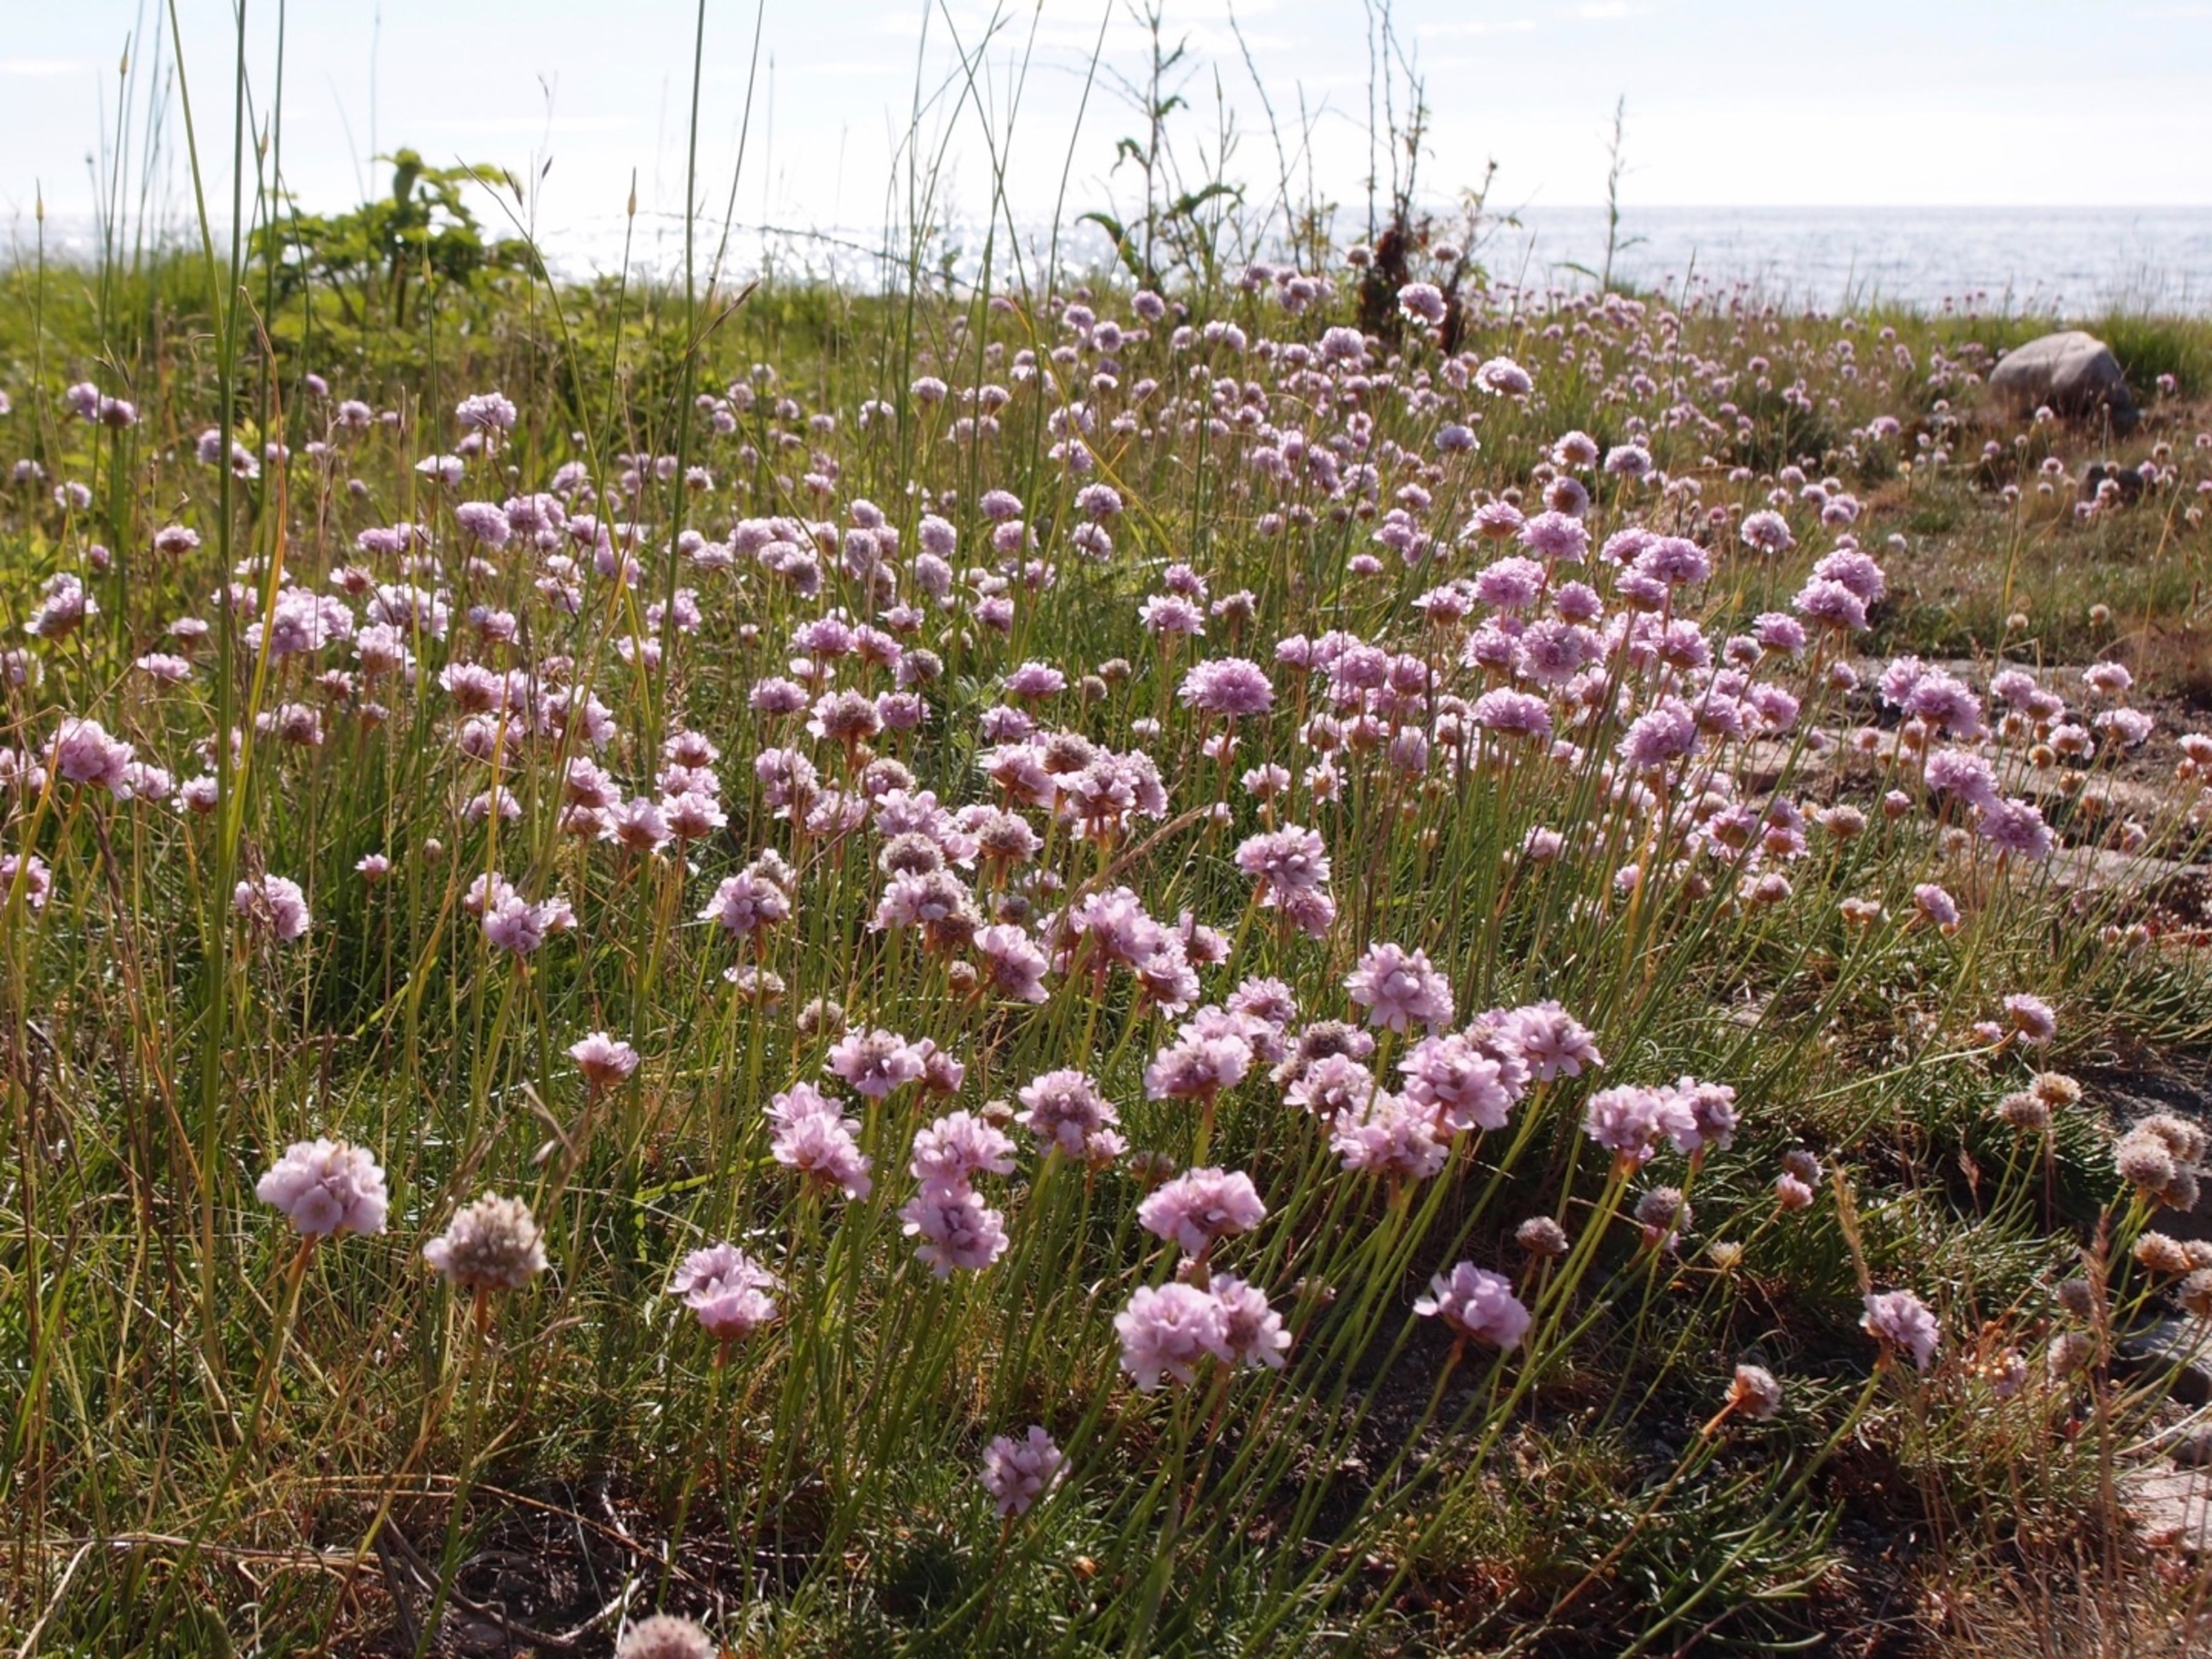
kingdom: Plantae
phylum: Tracheophyta
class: Magnoliopsida
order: Caryophyllales
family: Plumbaginaceae
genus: Armeria
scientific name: Armeria maritima
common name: Engelskgræs
